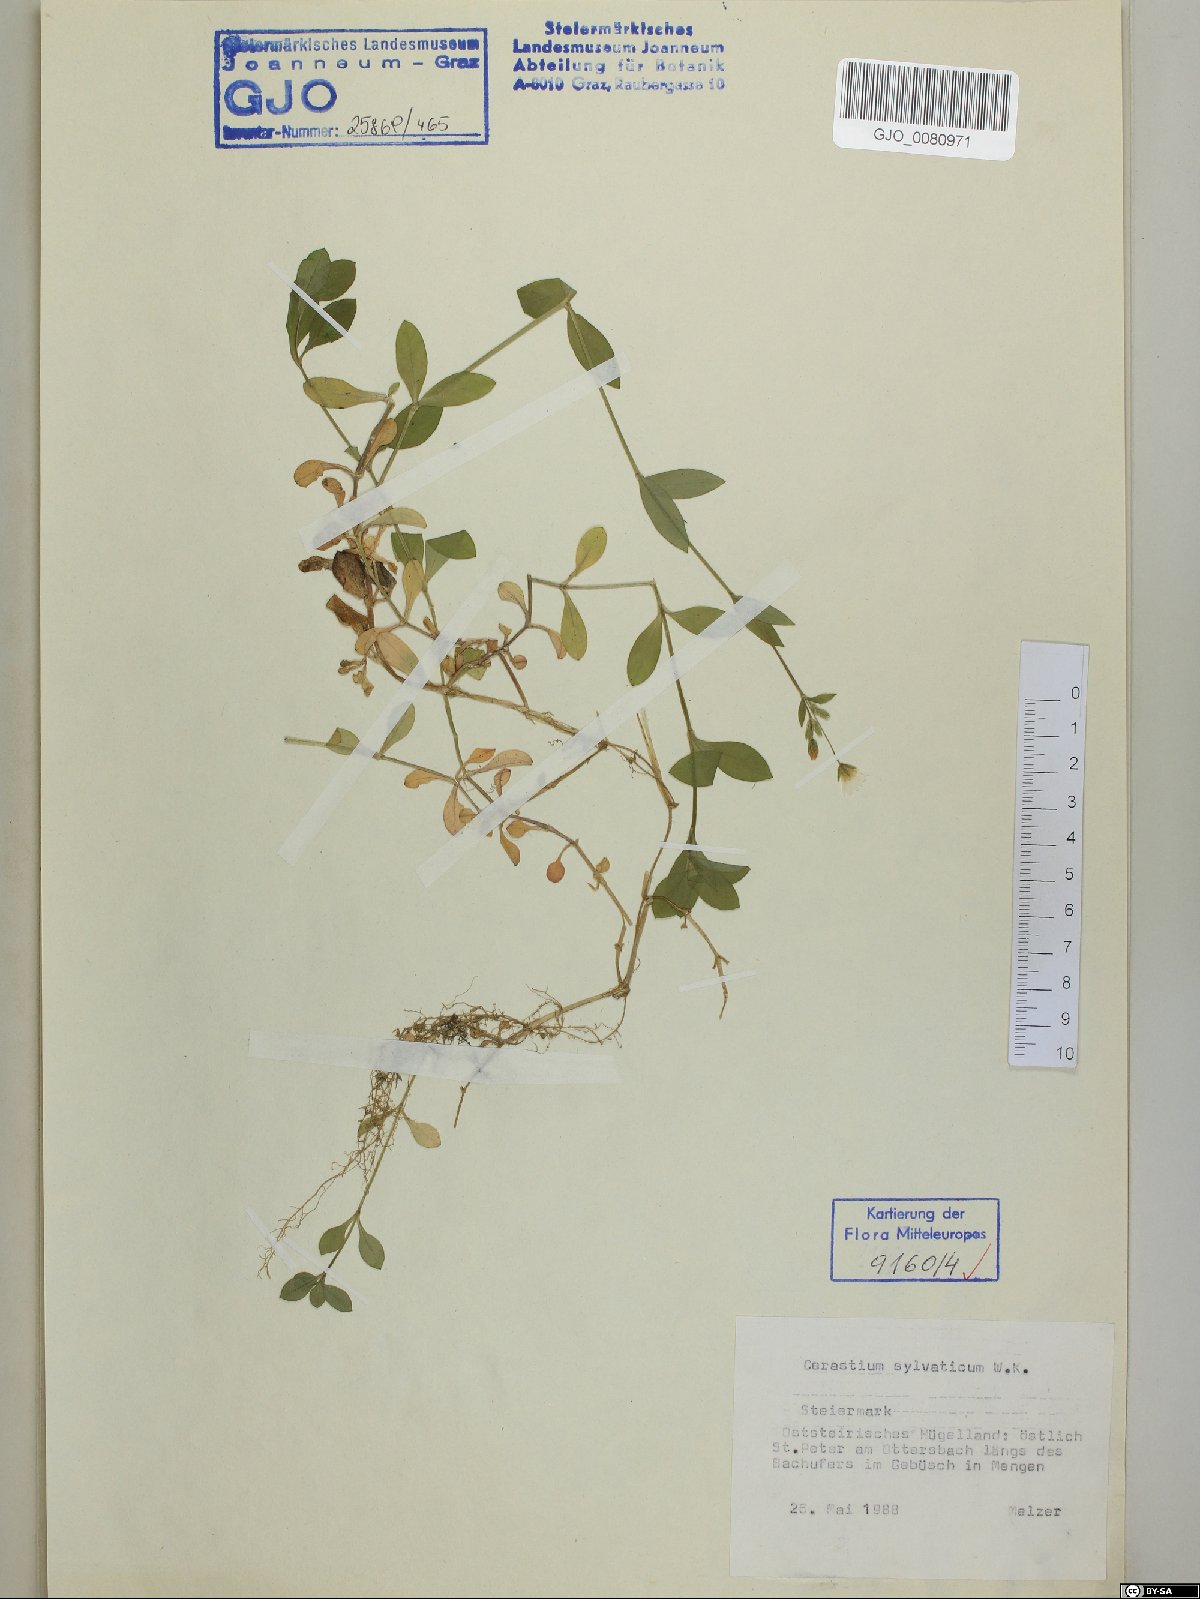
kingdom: Plantae
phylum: Tracheophyta
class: Magnoliopsida
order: Caryophyllales
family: Caryophyllaceae
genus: Cerastium
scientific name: Cerastium sylvaticum
